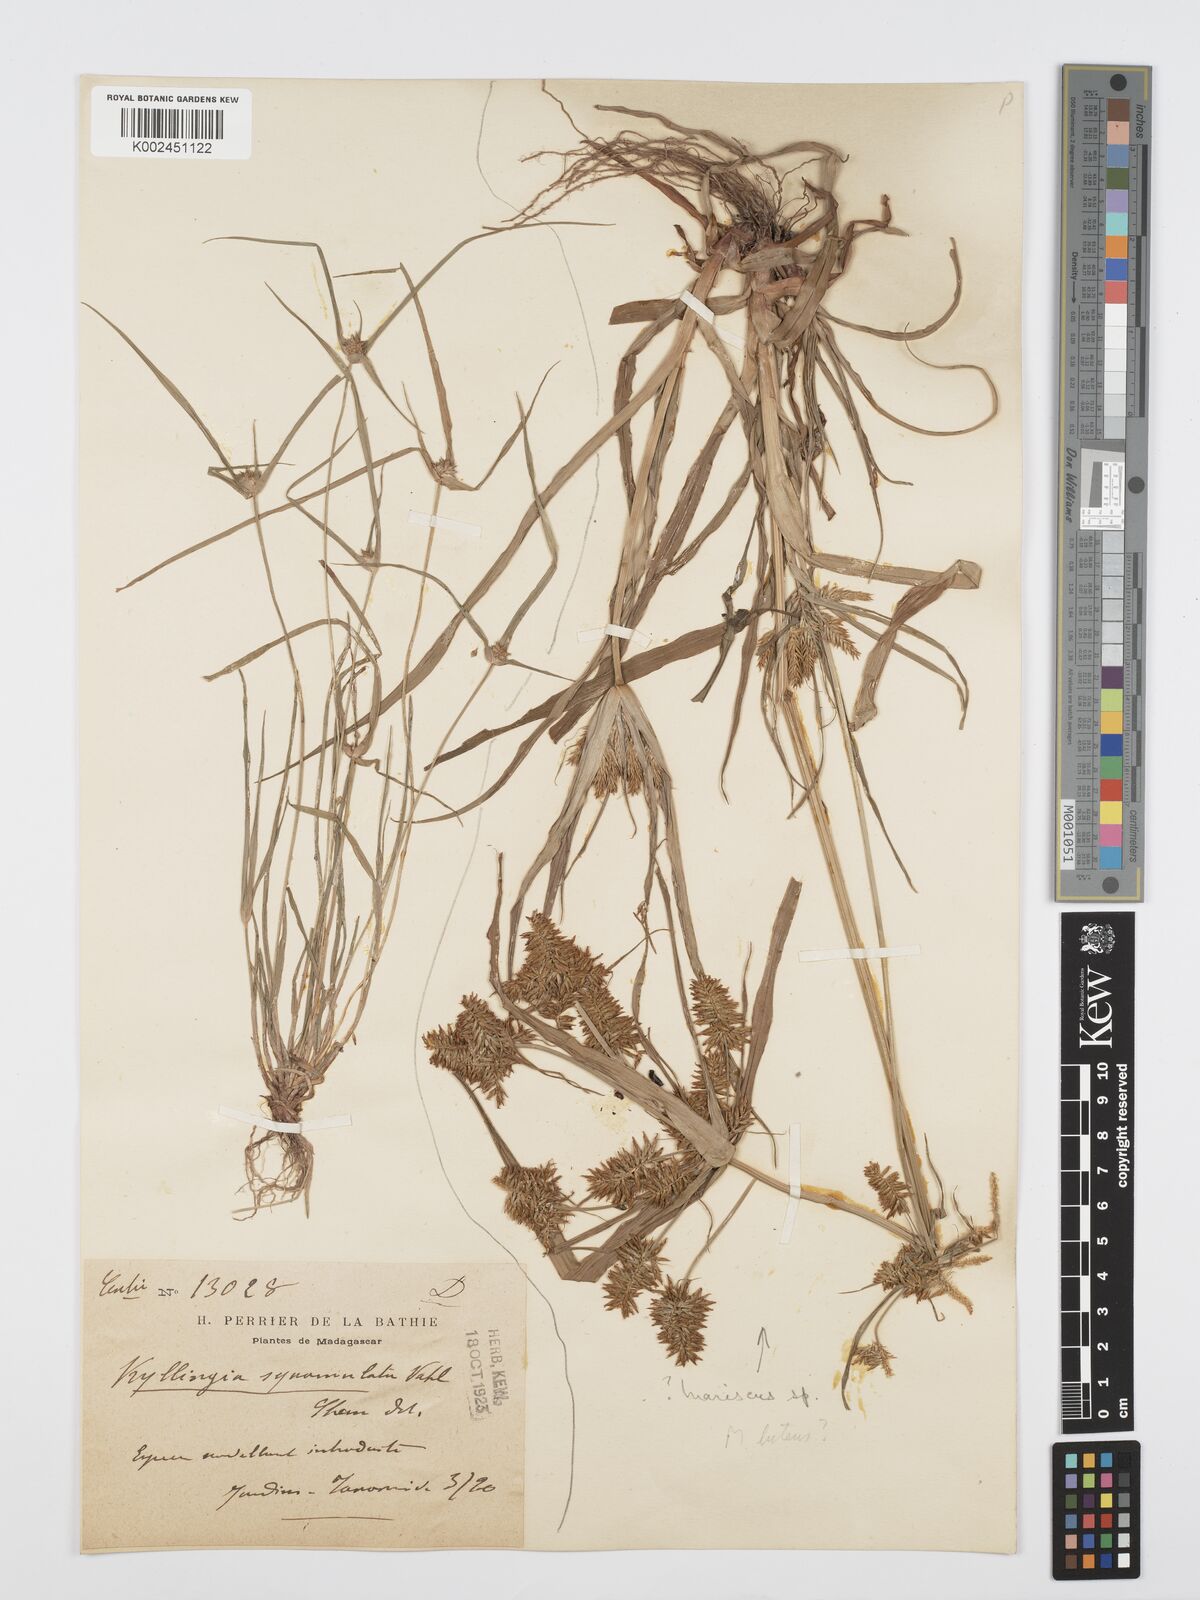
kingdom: Plantae
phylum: Tracheophyta
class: Liliopsida
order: Poales
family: Cyperaceae
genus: Cyperus
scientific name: Cyperus
